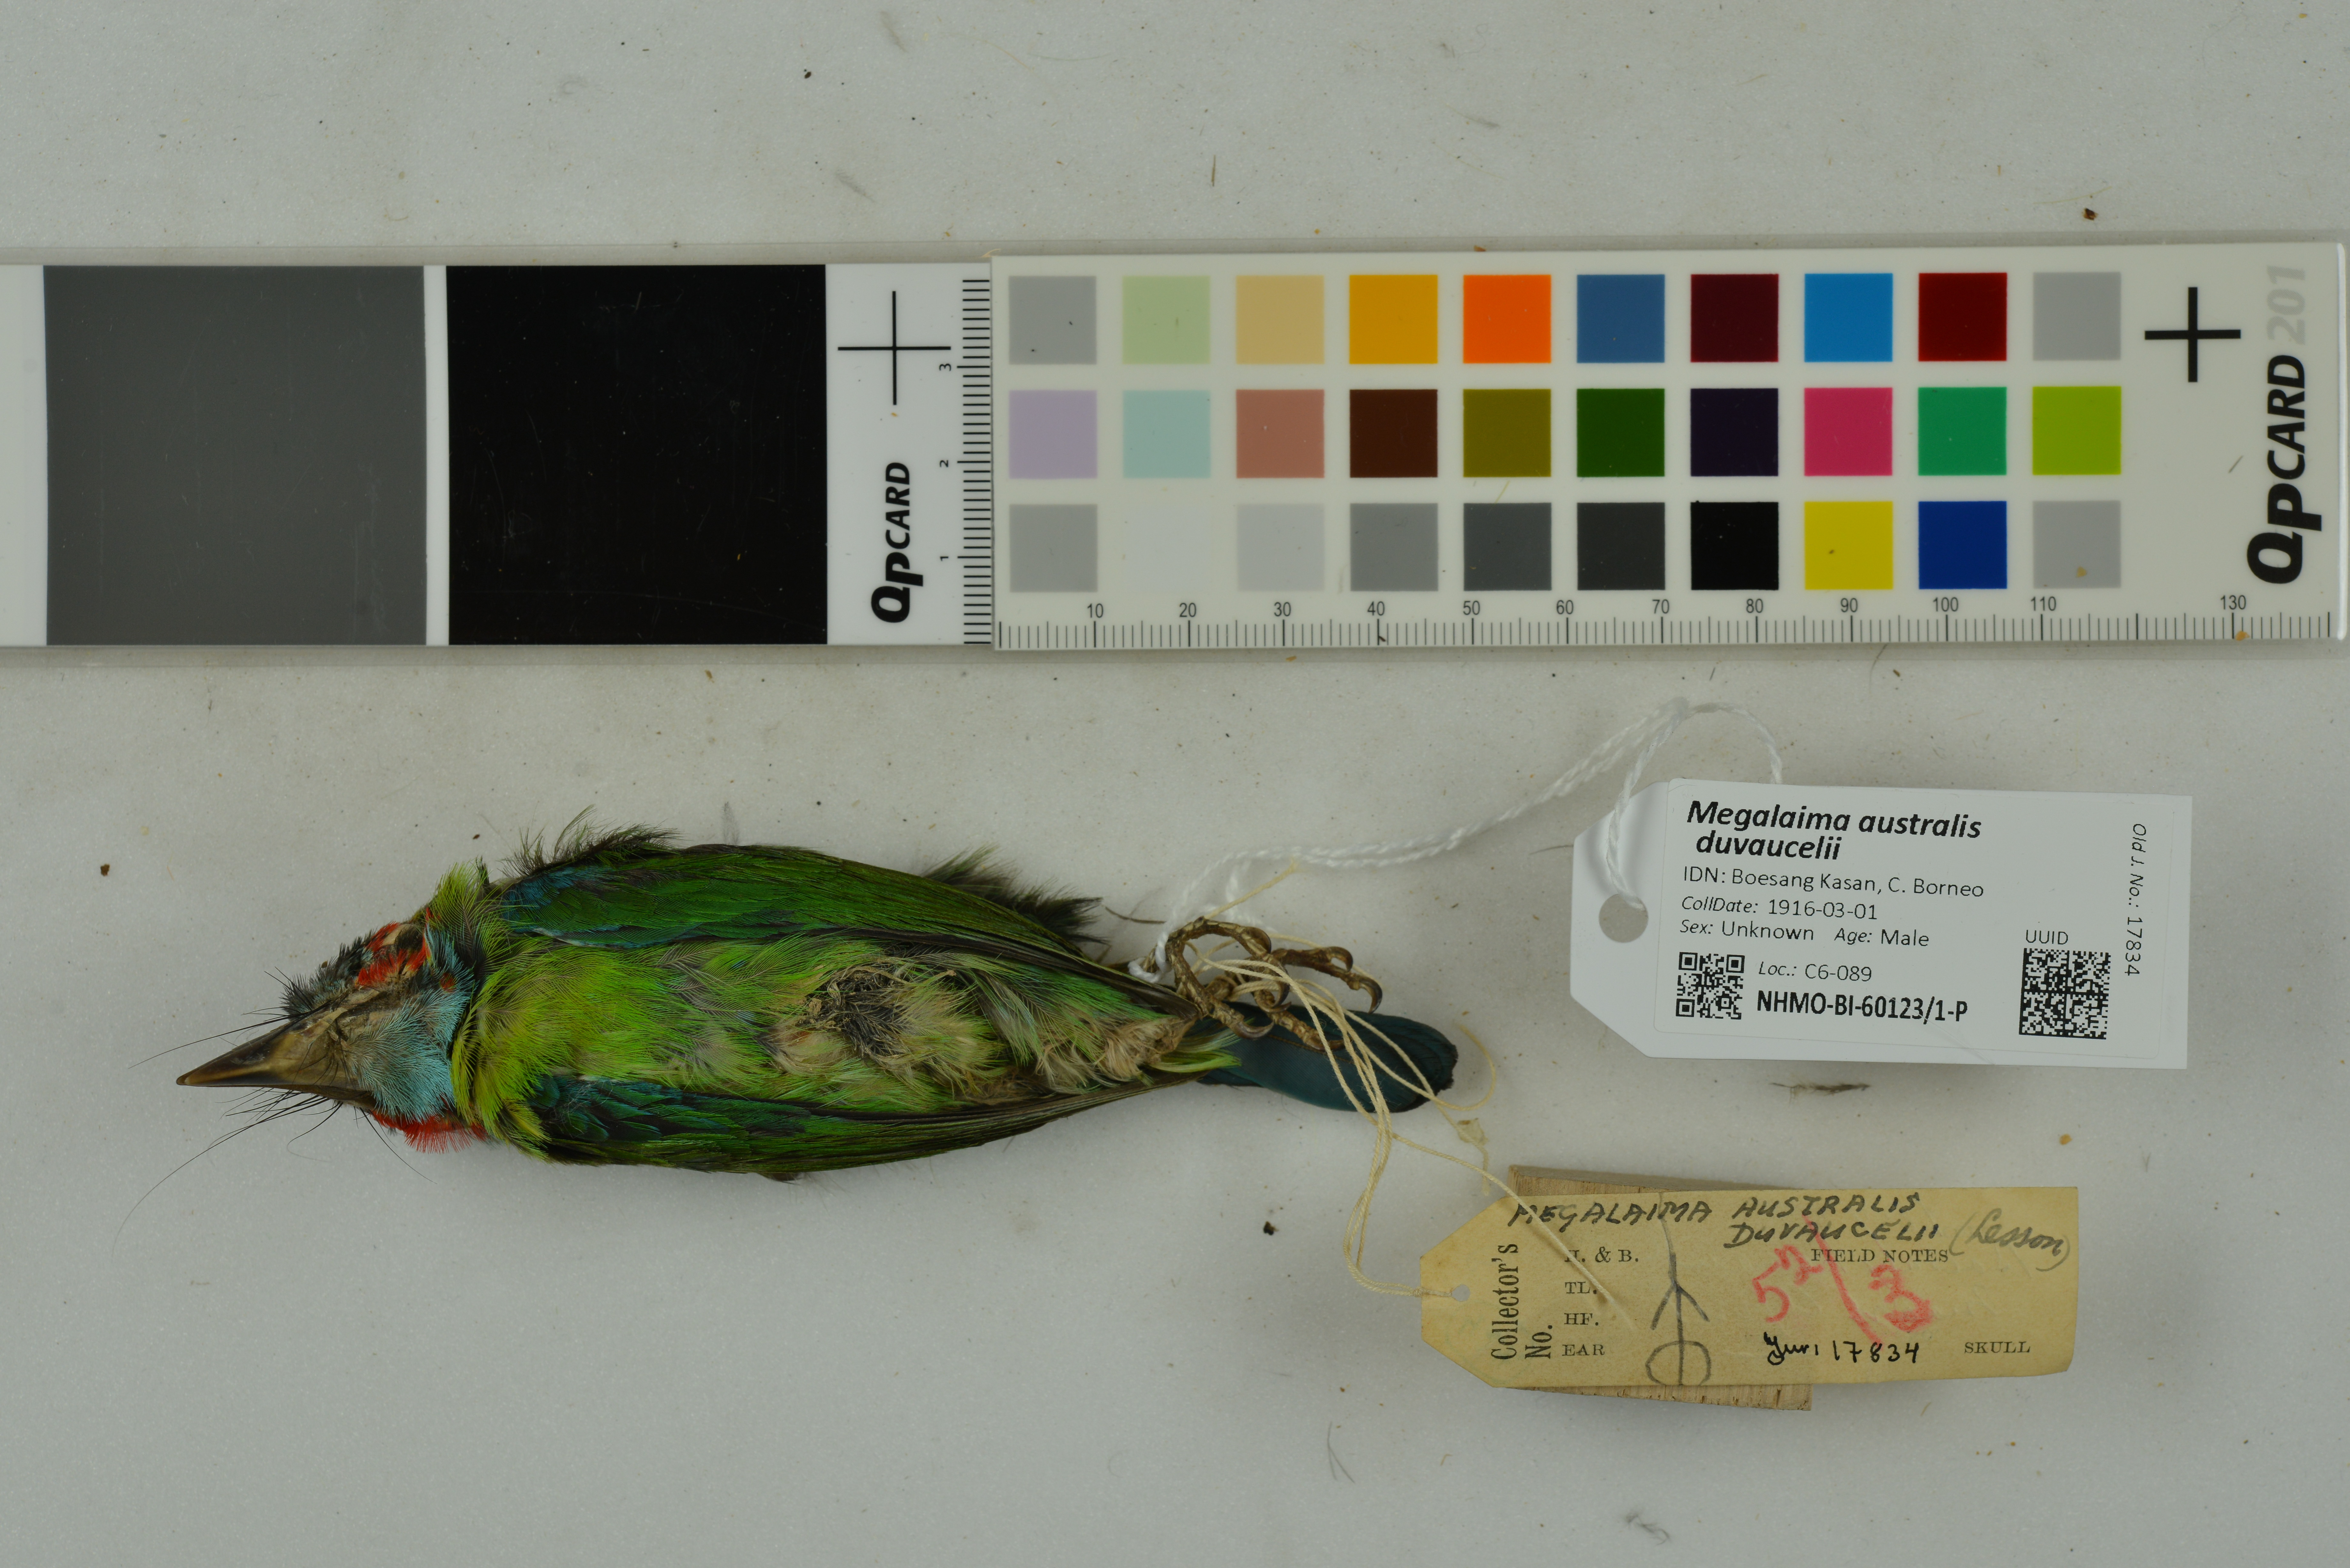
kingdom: Animalia
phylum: Chordata
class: Aves
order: Piciformes
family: Megalaimidae
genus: Psilopogon
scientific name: Psilopogon duvaucelii
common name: Blue-eared barbet
